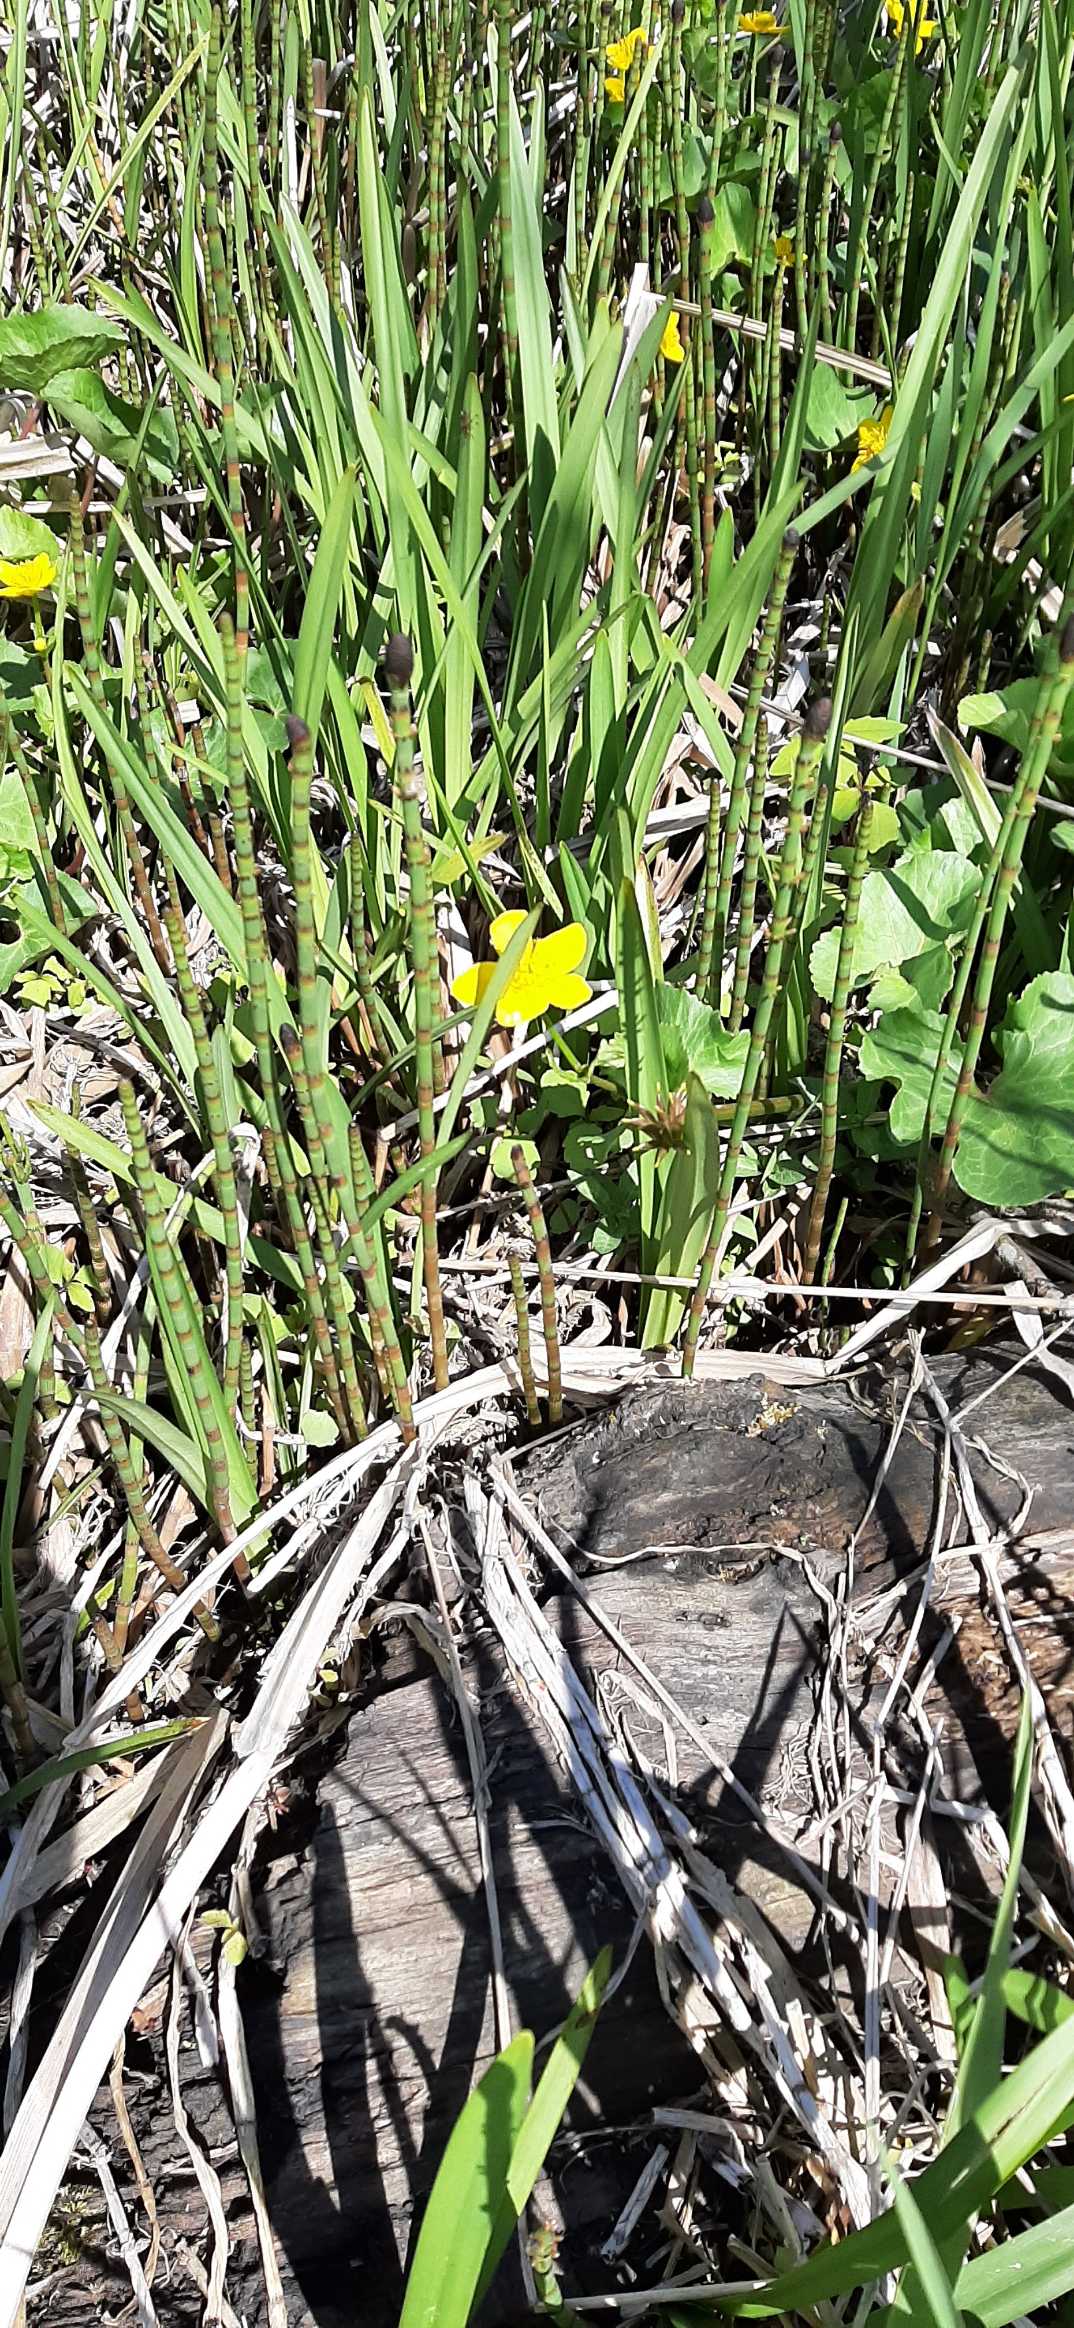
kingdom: Plantae
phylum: Tracheophyta
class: Magnoliopsida
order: Ranunculales
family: Ranunculaceae
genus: Caltha
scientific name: Caltha palustris
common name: Eng-kabbeleje
